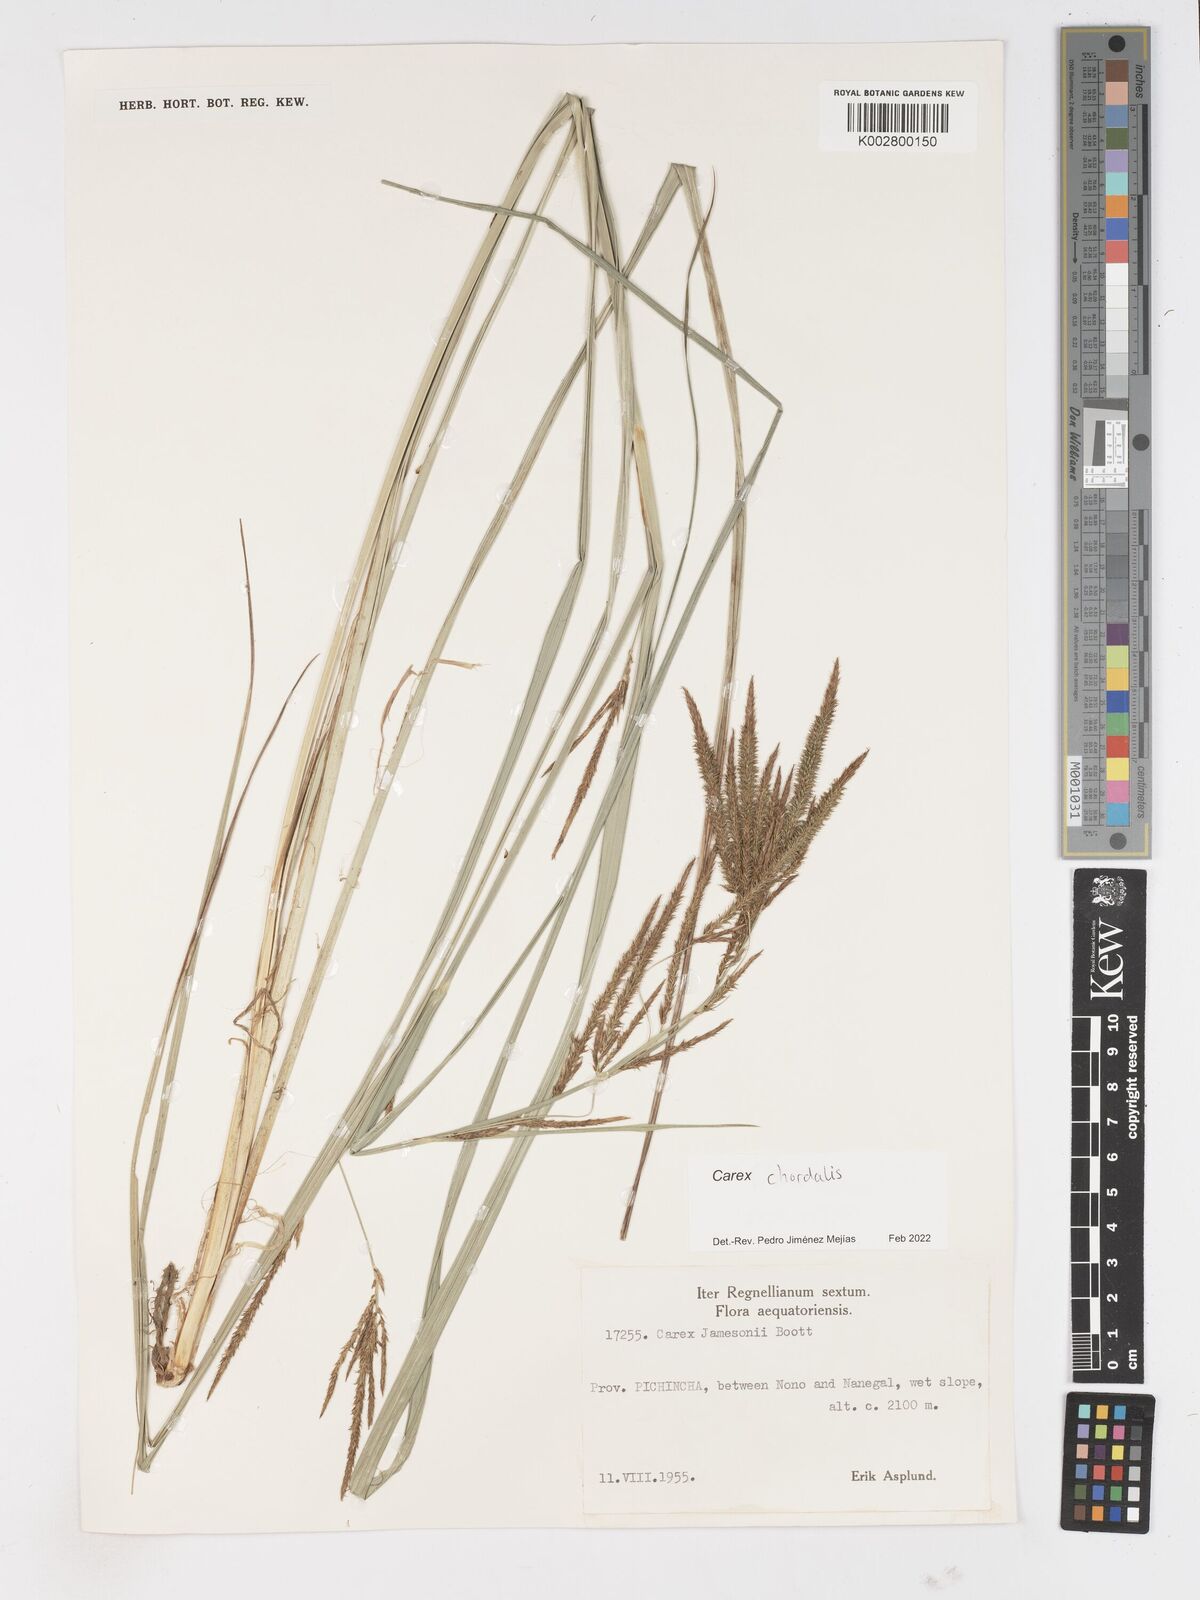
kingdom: Plantae
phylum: Tracheophyta
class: Liliopsida
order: Poales
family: Cyperaceae
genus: Carex
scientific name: Carex jamesonii
